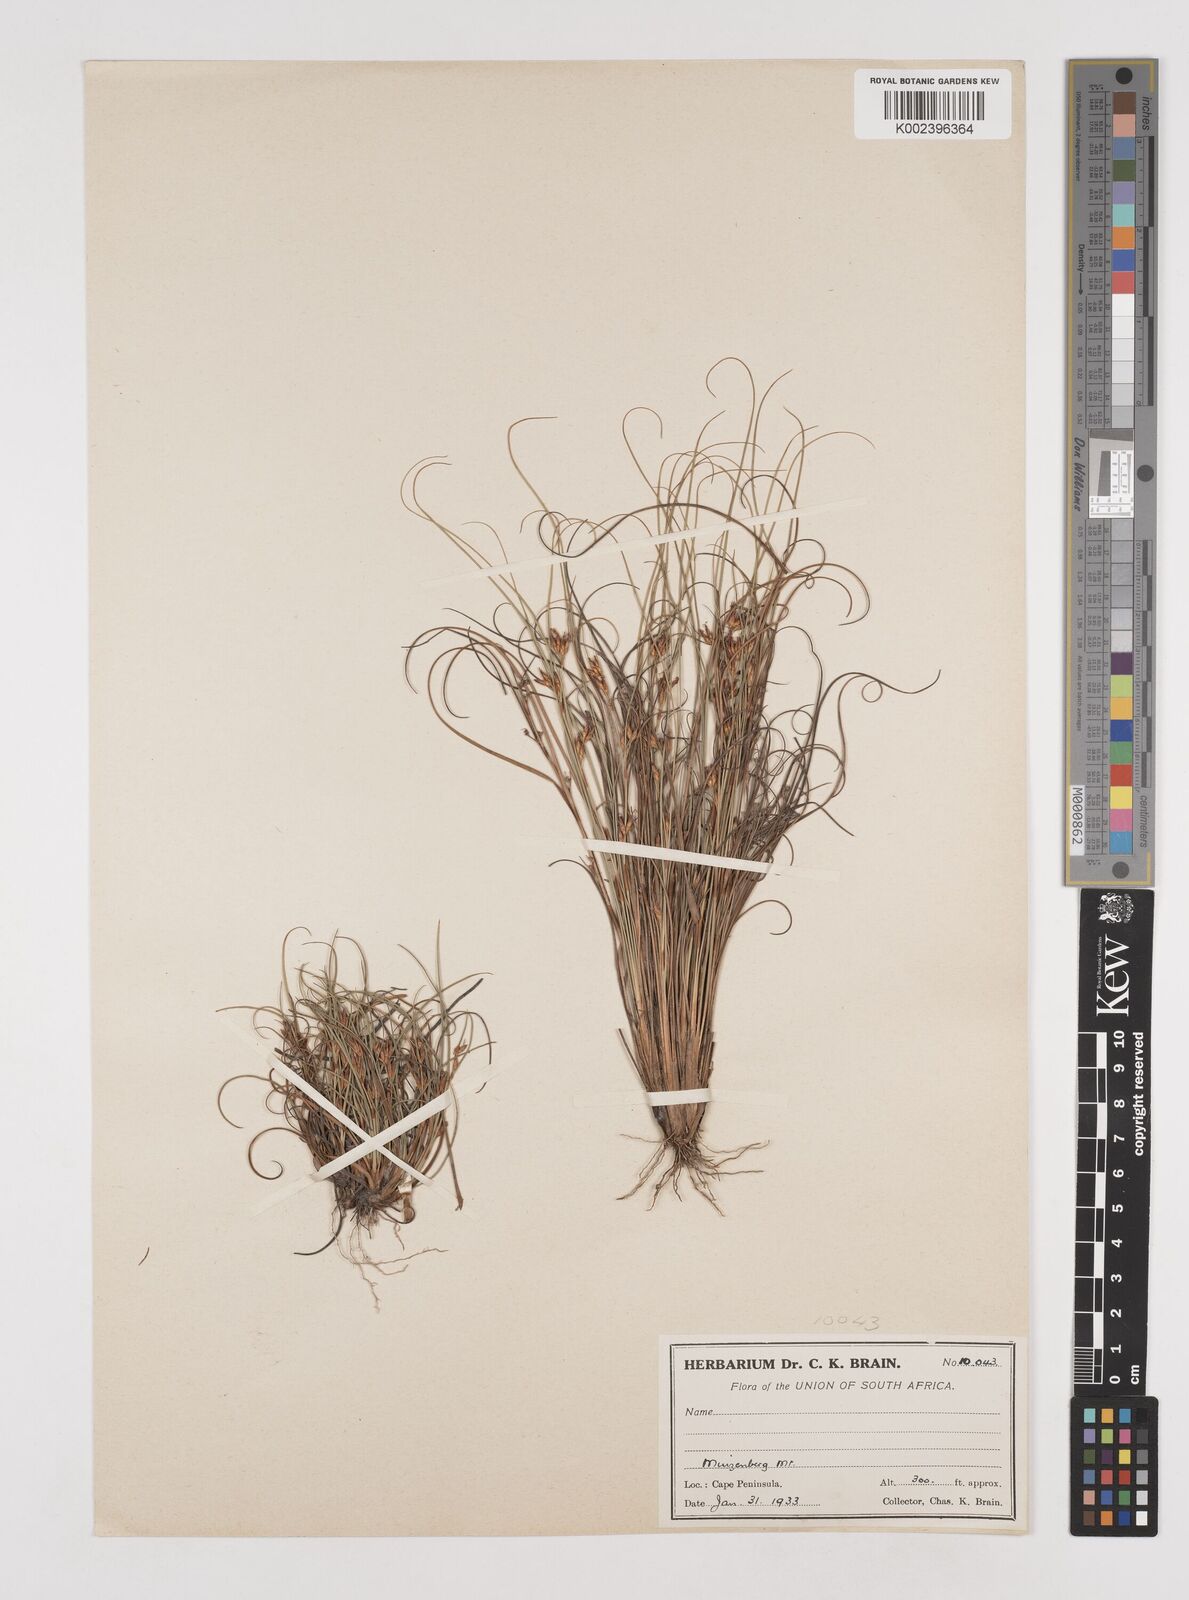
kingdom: Plantae
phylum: Tracheophyta
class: Liliopsida
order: Poales
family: Cyperaceae
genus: Tetraria
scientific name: Tetraria
